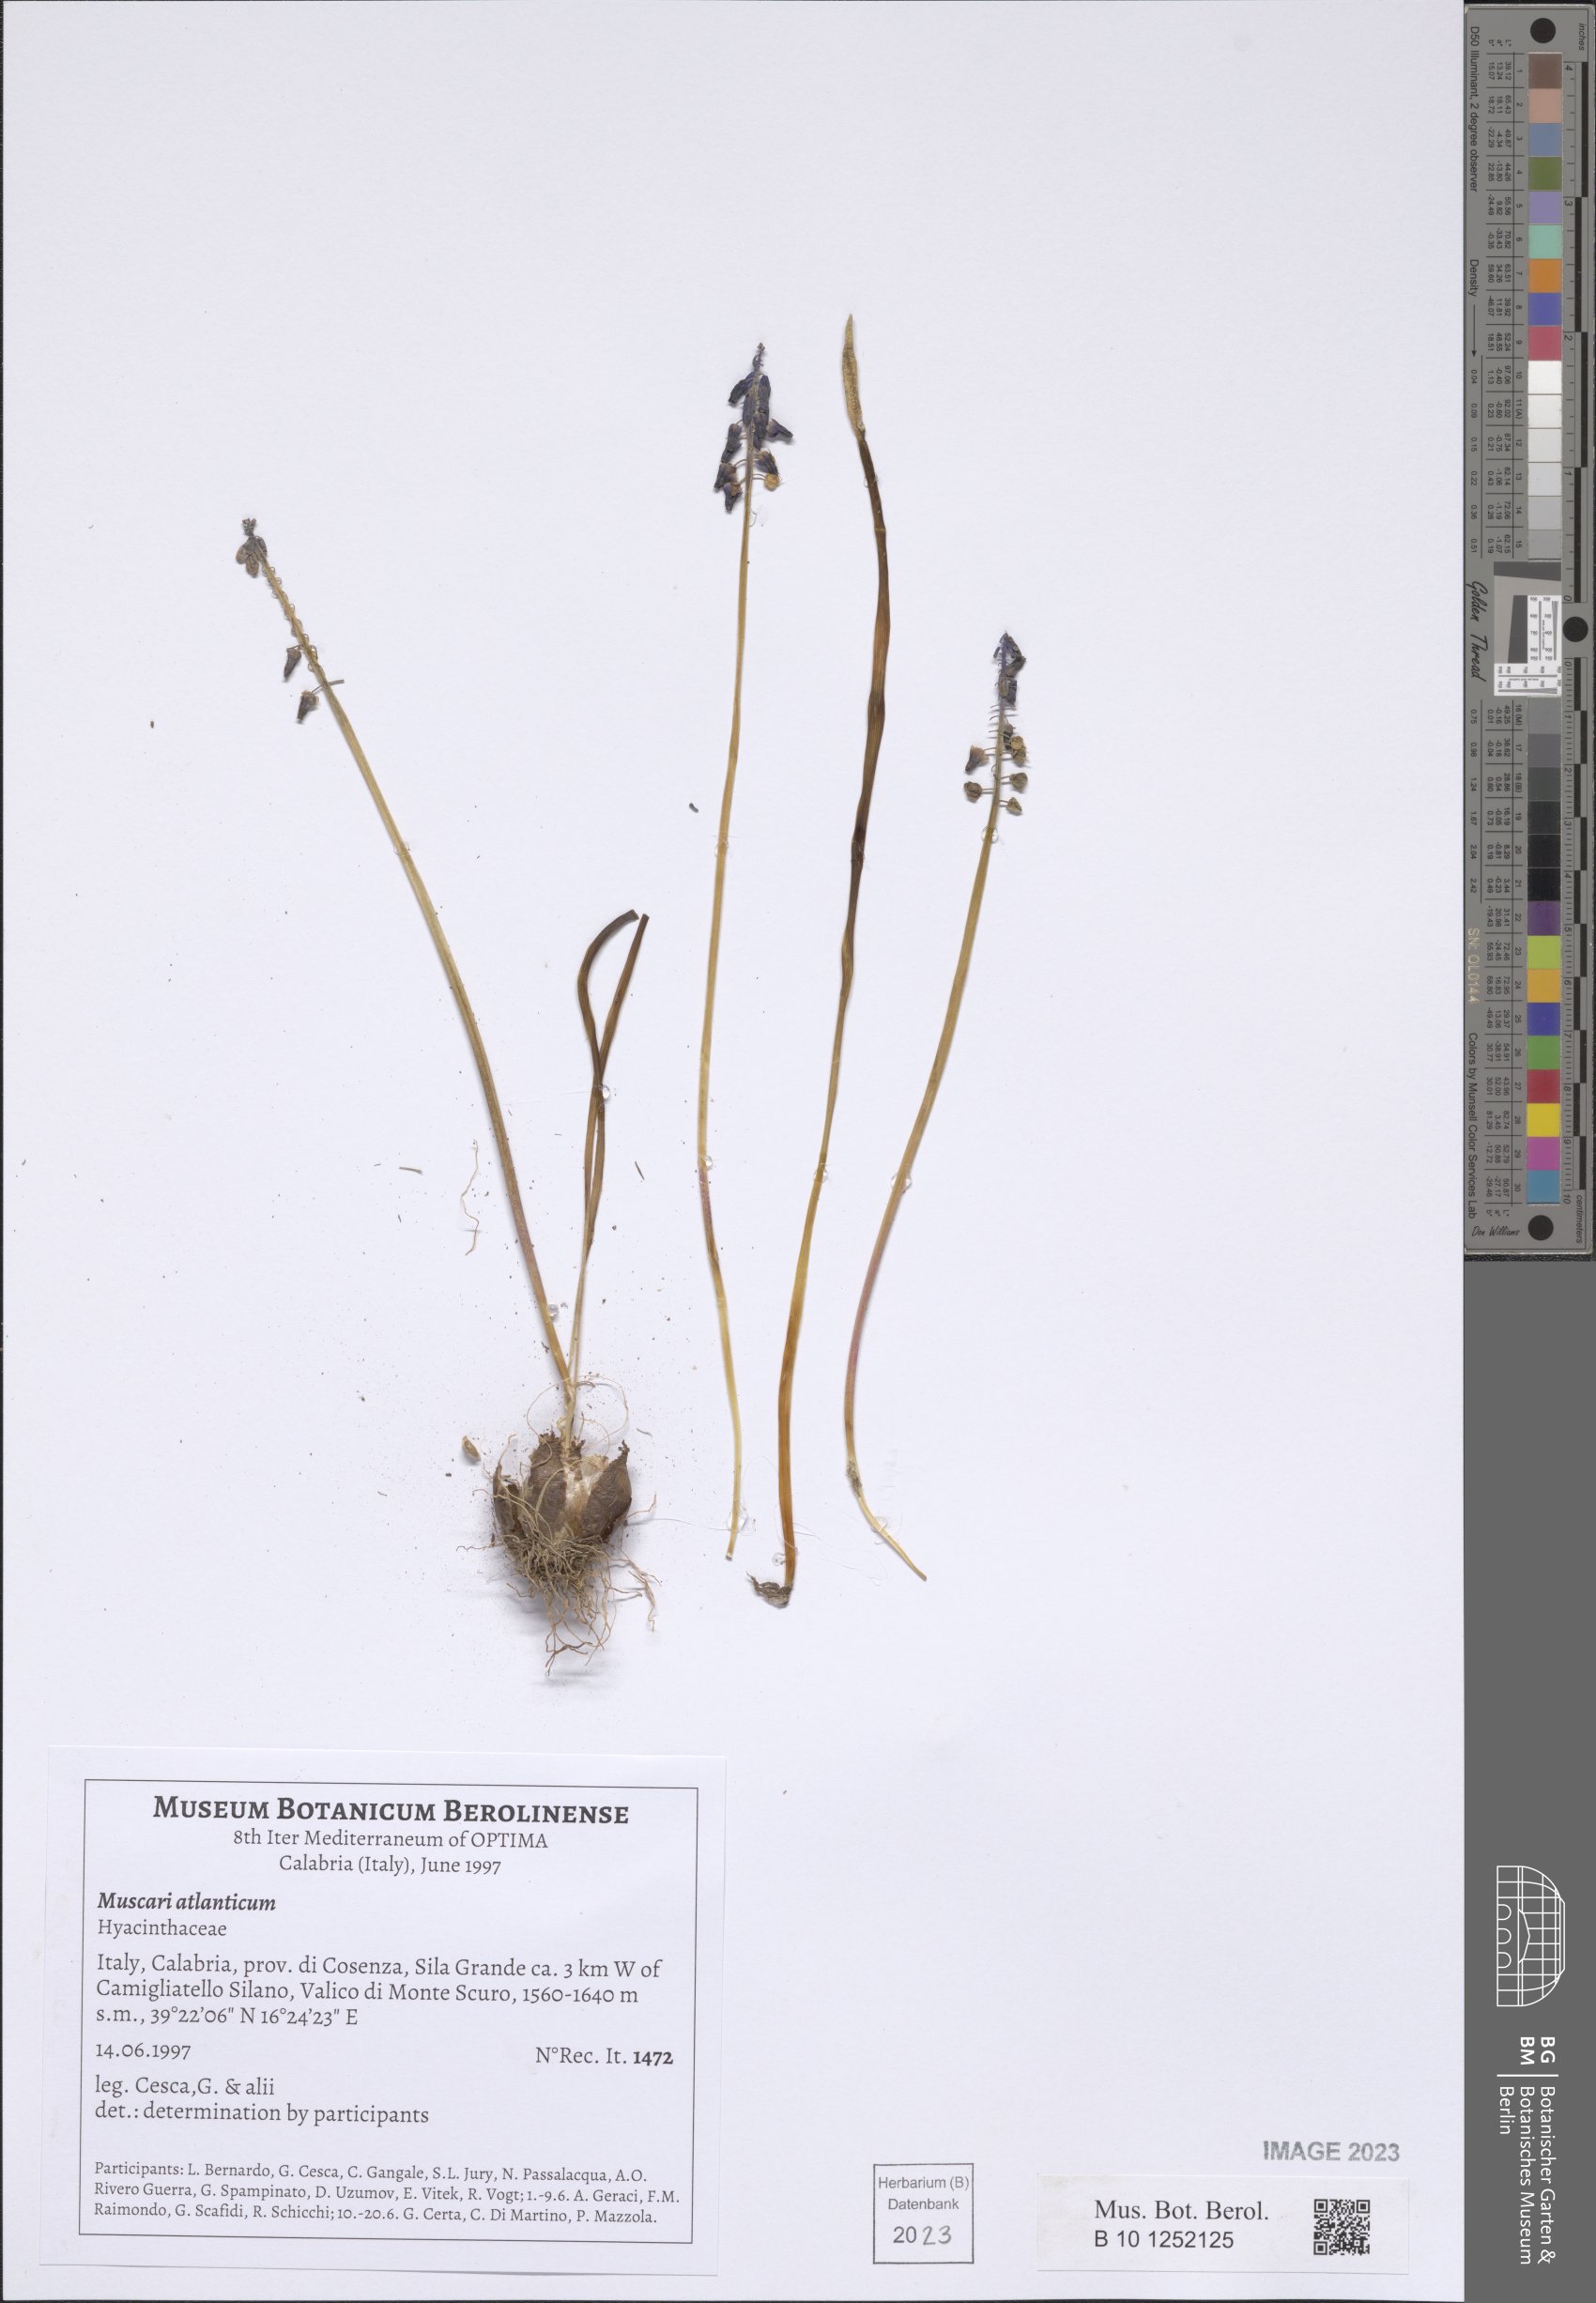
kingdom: Plantae
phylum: Tracheophyta
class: Liliopsida
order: Asparagales
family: Asparagaceae
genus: Muscari
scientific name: Muscari atlanticum
